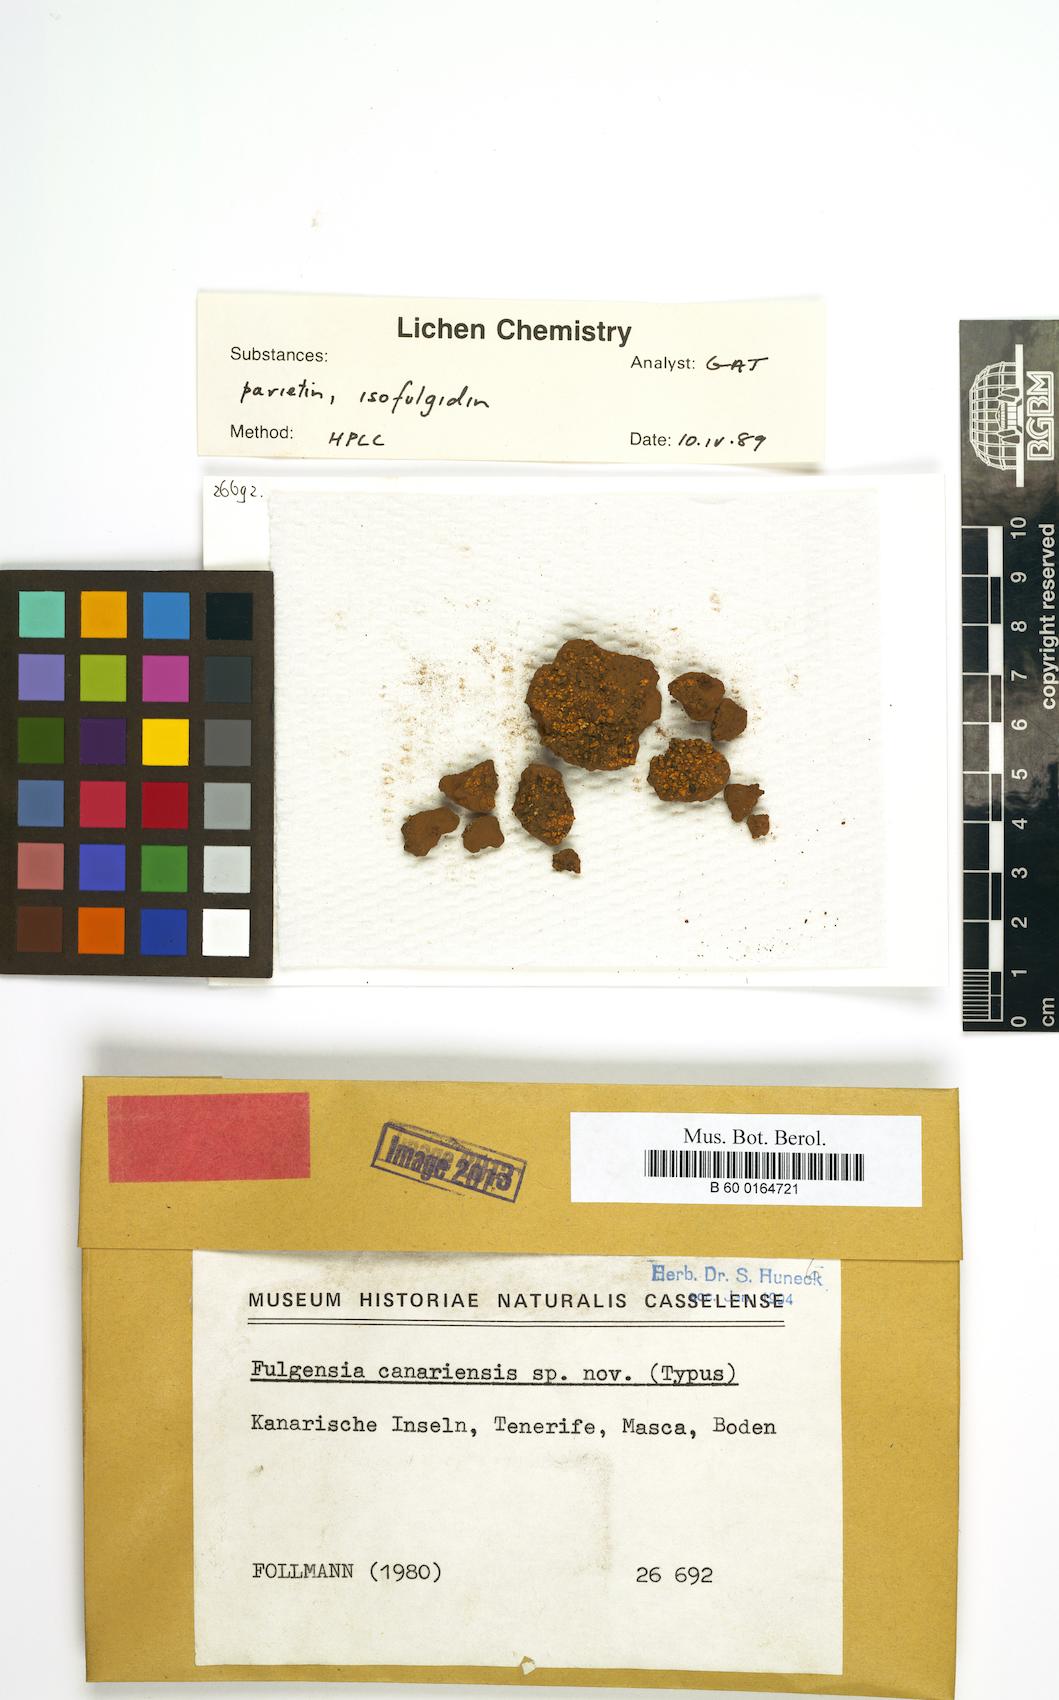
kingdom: Fungi
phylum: Ascomycota
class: Lecanoromycetes
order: Teloschistales
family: Teloschistaceae
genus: Gyalolechia
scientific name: Gyalolechia canariensis
